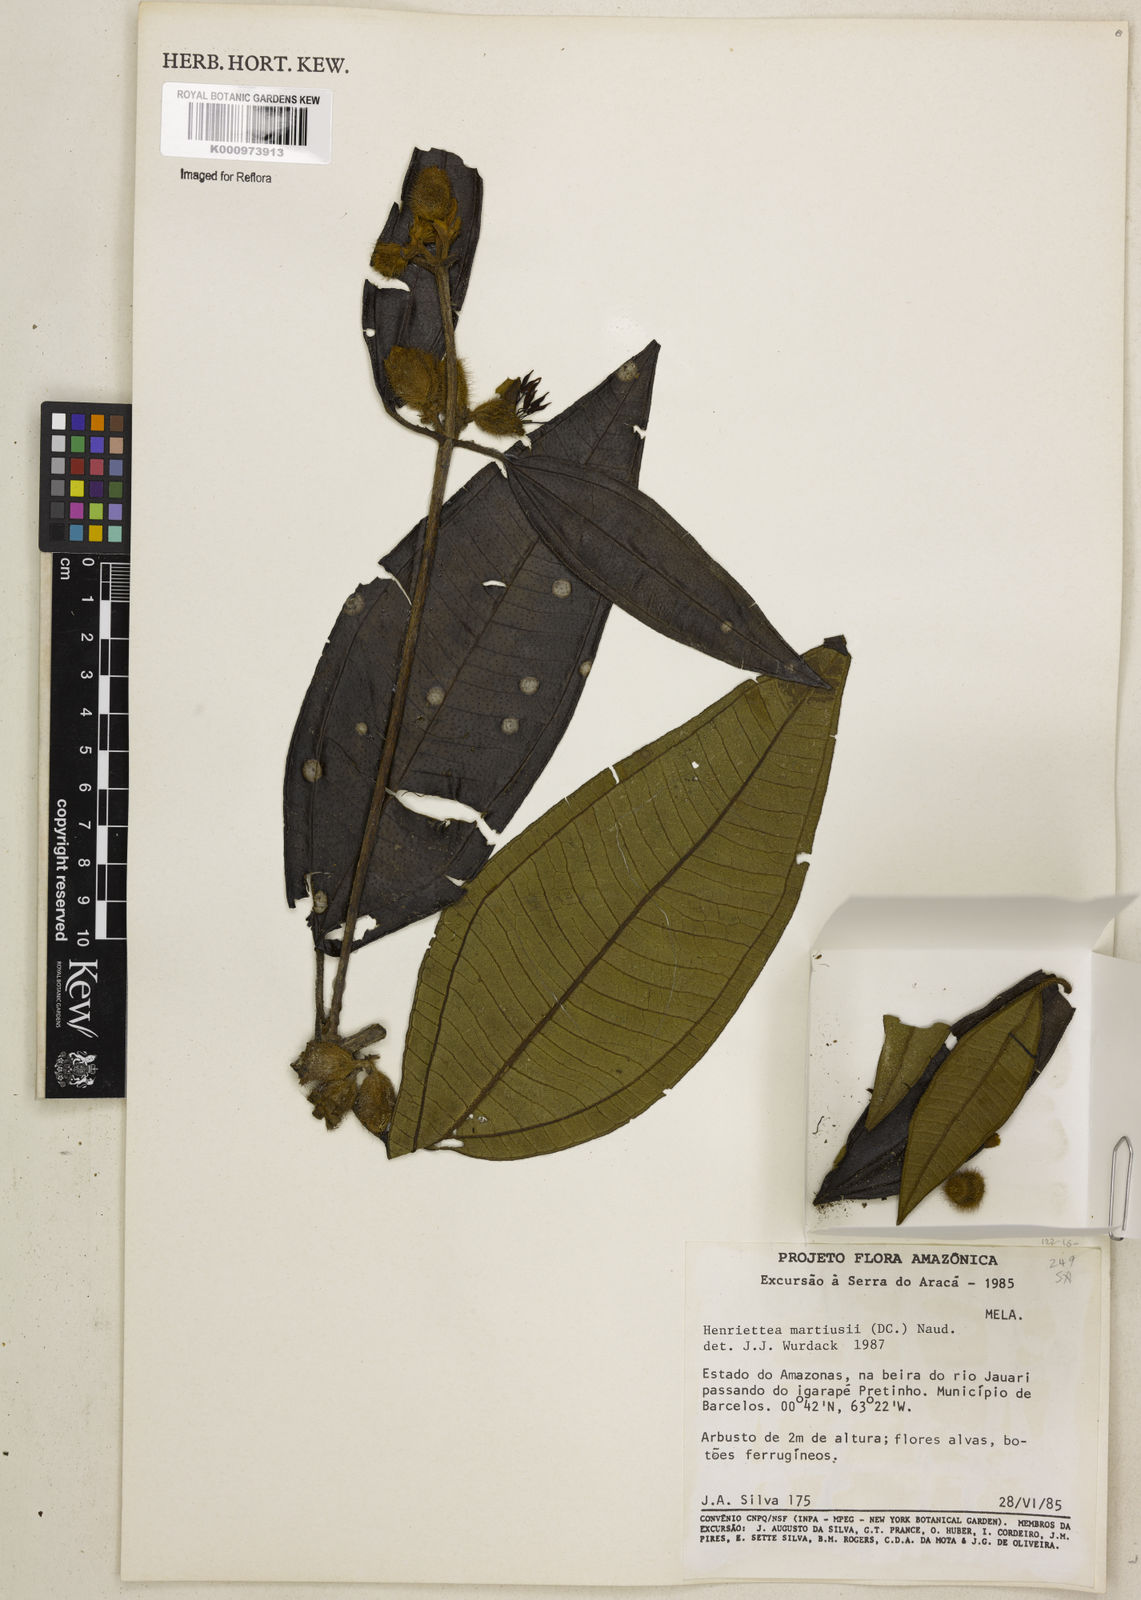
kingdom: Plantae
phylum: Tracheophyta
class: Magnoliopsida
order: Myrtales
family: Melastomataceae
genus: Henriettea
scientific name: Henriettea martiusii
